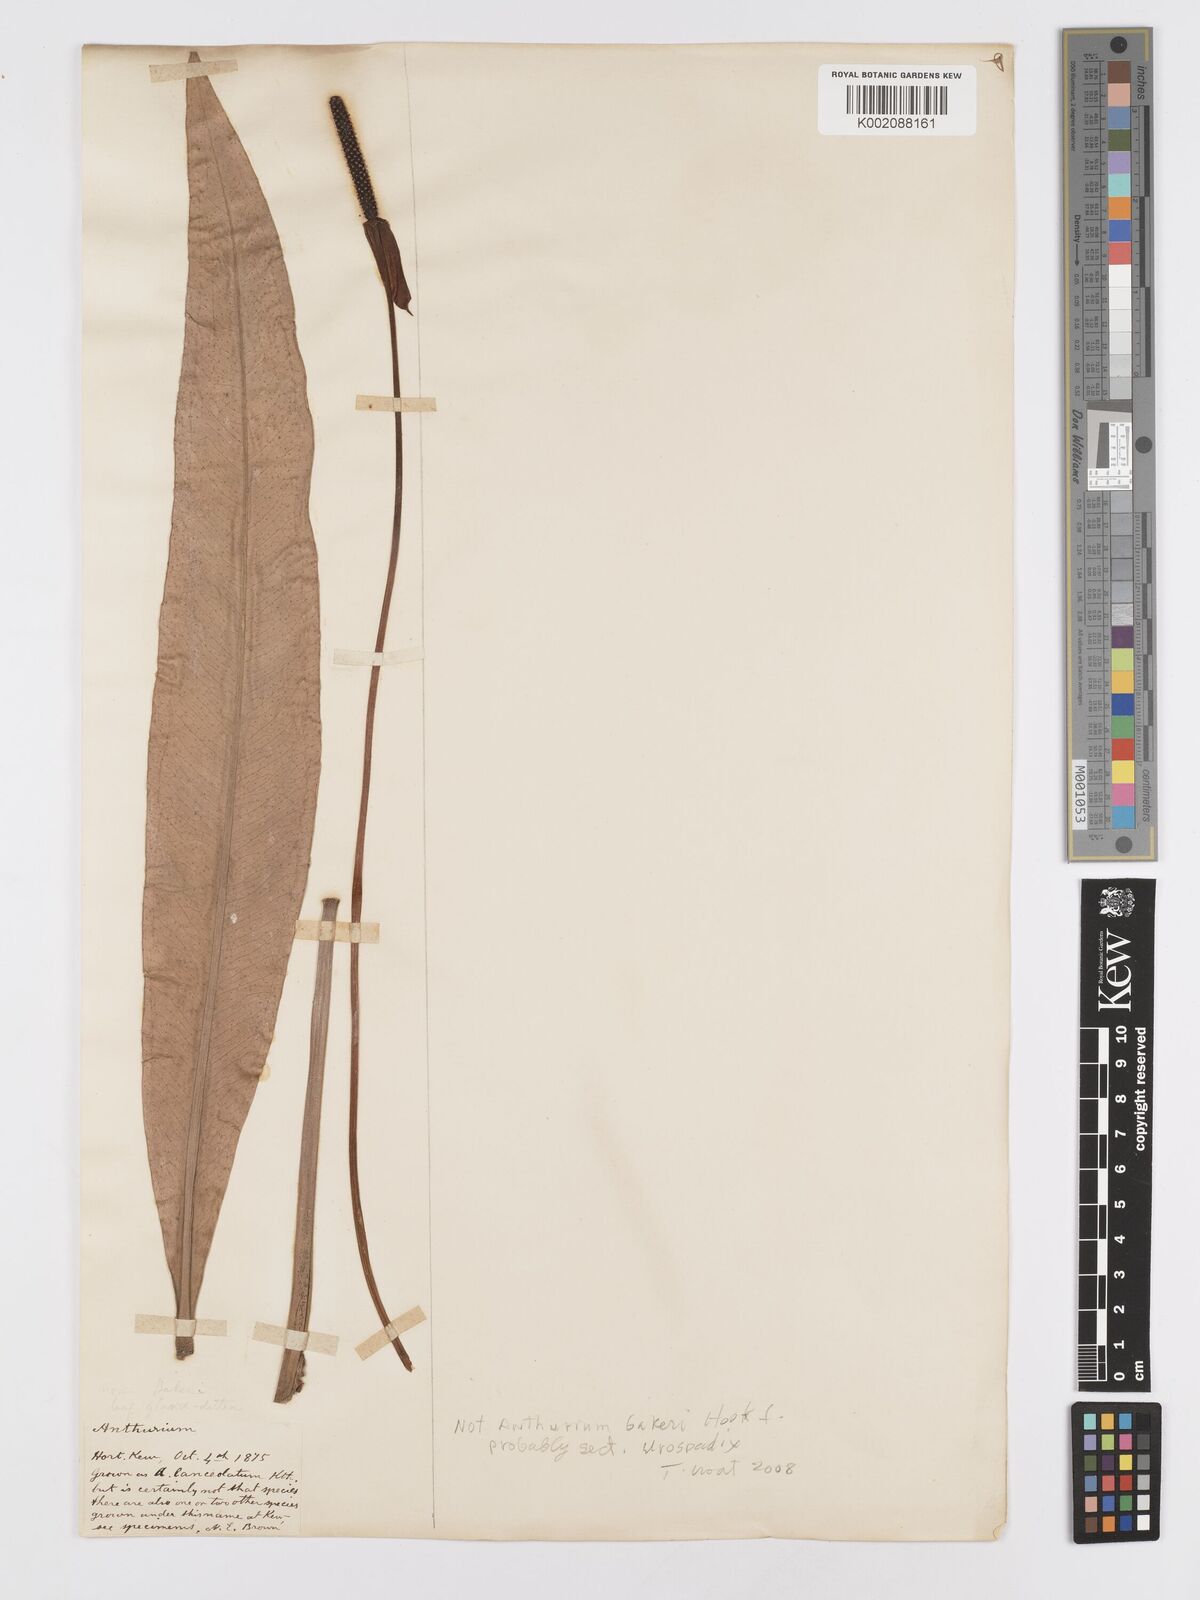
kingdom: Plantae
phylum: Tracheophyta
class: Liliopsida
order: Alismatales
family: Araceae
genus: Anthurium
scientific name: Anthurium
